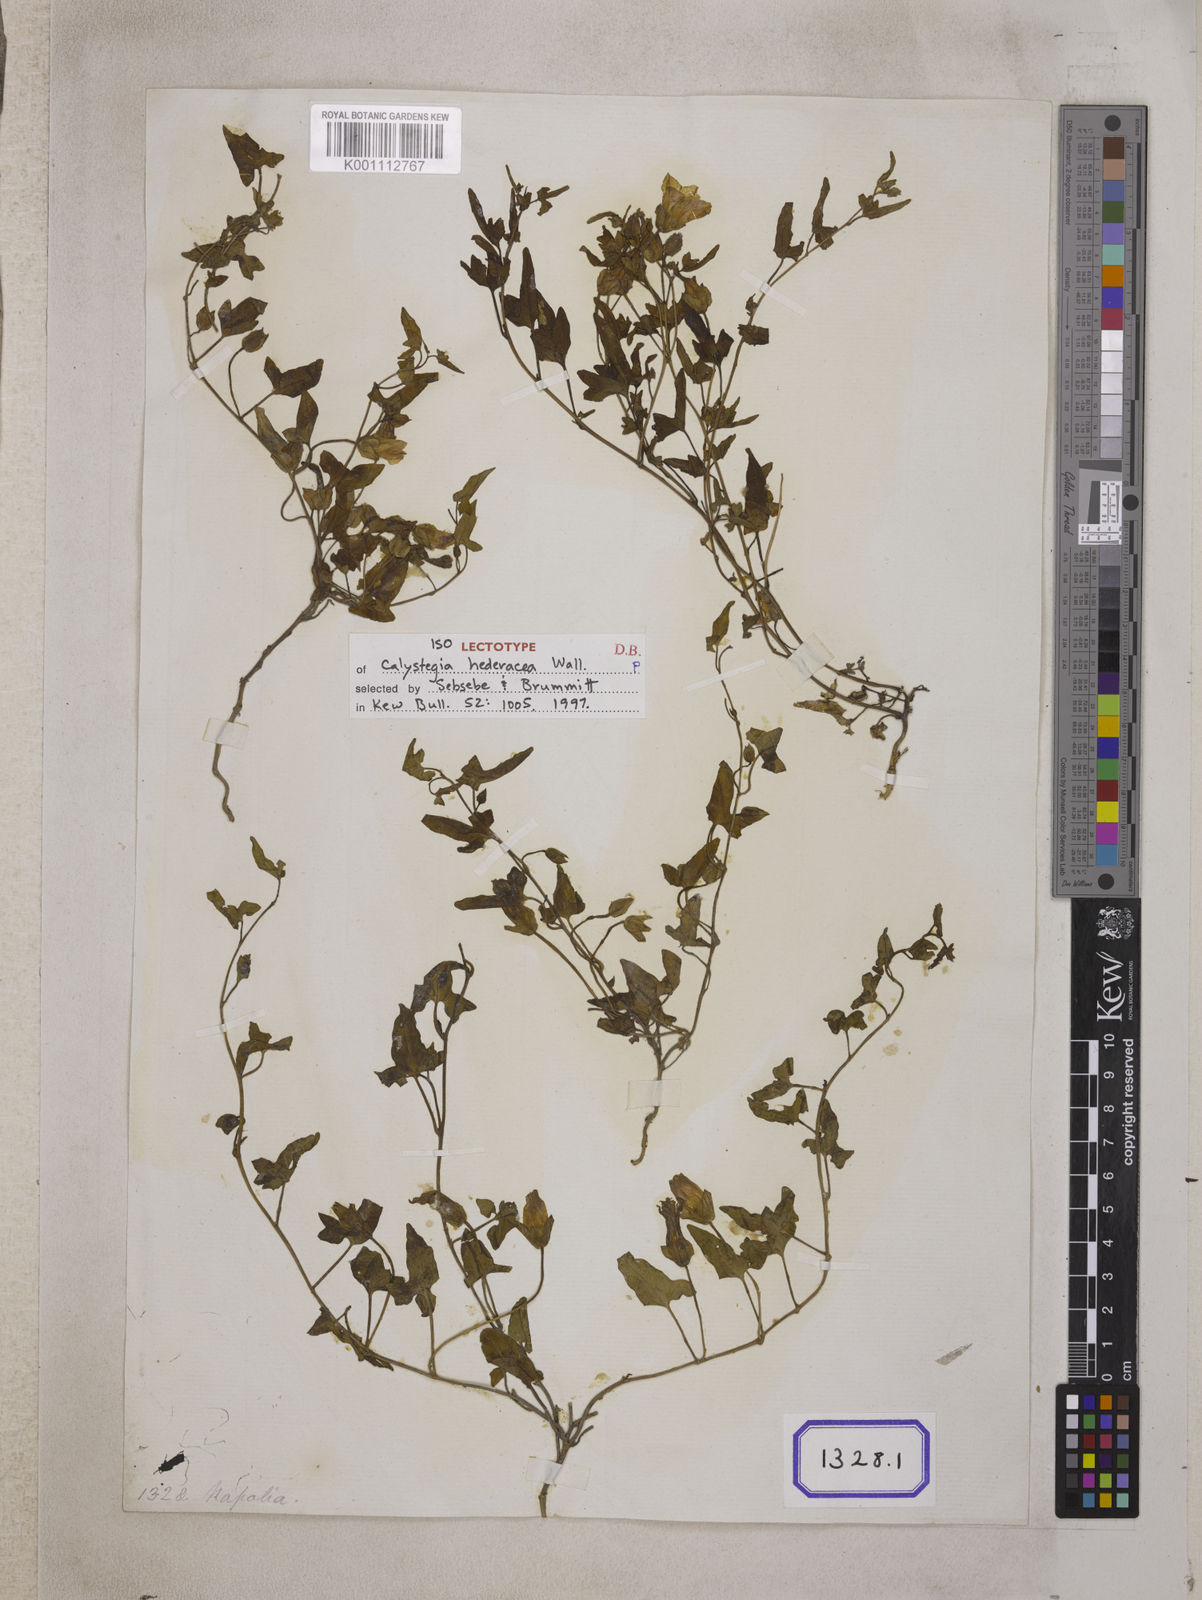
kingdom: Plantae
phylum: Tracheophyta
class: Magnoliopsida
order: Solanales
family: Convolvulaceae
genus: Calystegia
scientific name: Calystegia hederacea
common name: Japanese false bindweed
